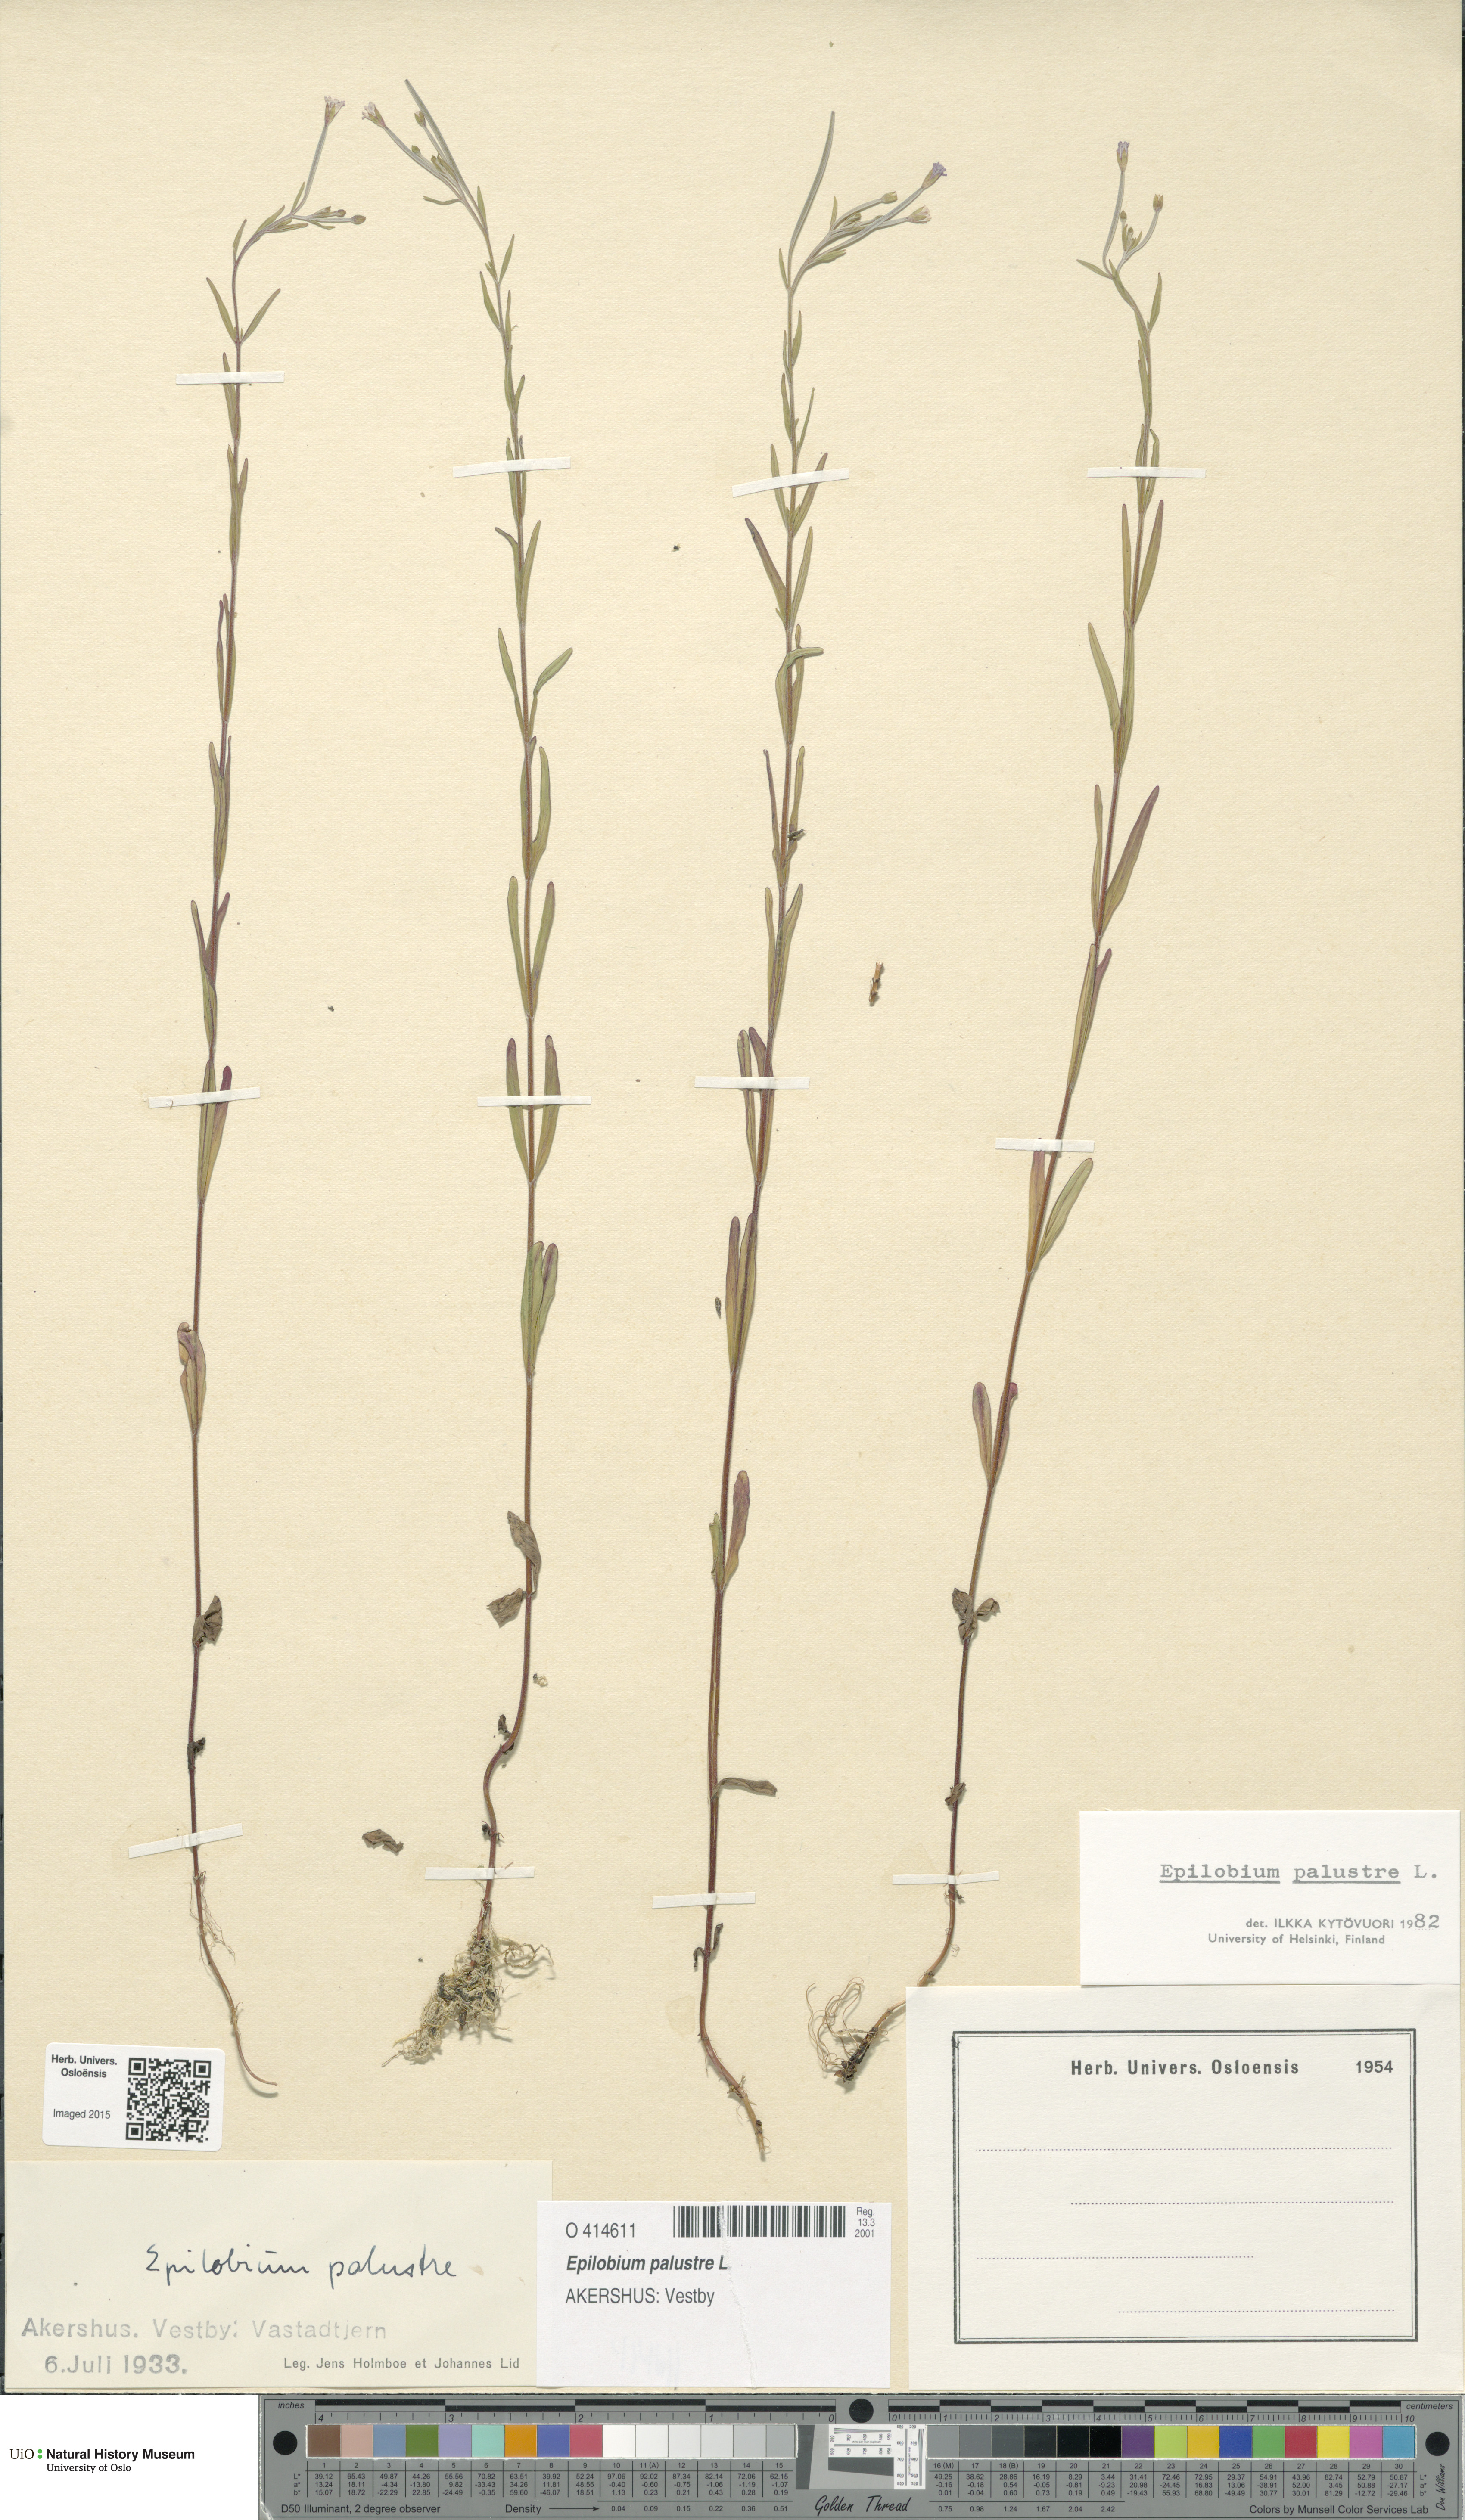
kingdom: Plantae
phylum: Tracheophyta
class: Magnoliopsida
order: Myrtales
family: Onagraceae
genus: Epilobium
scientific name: Epilobium palustre
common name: Marsh willowherb
